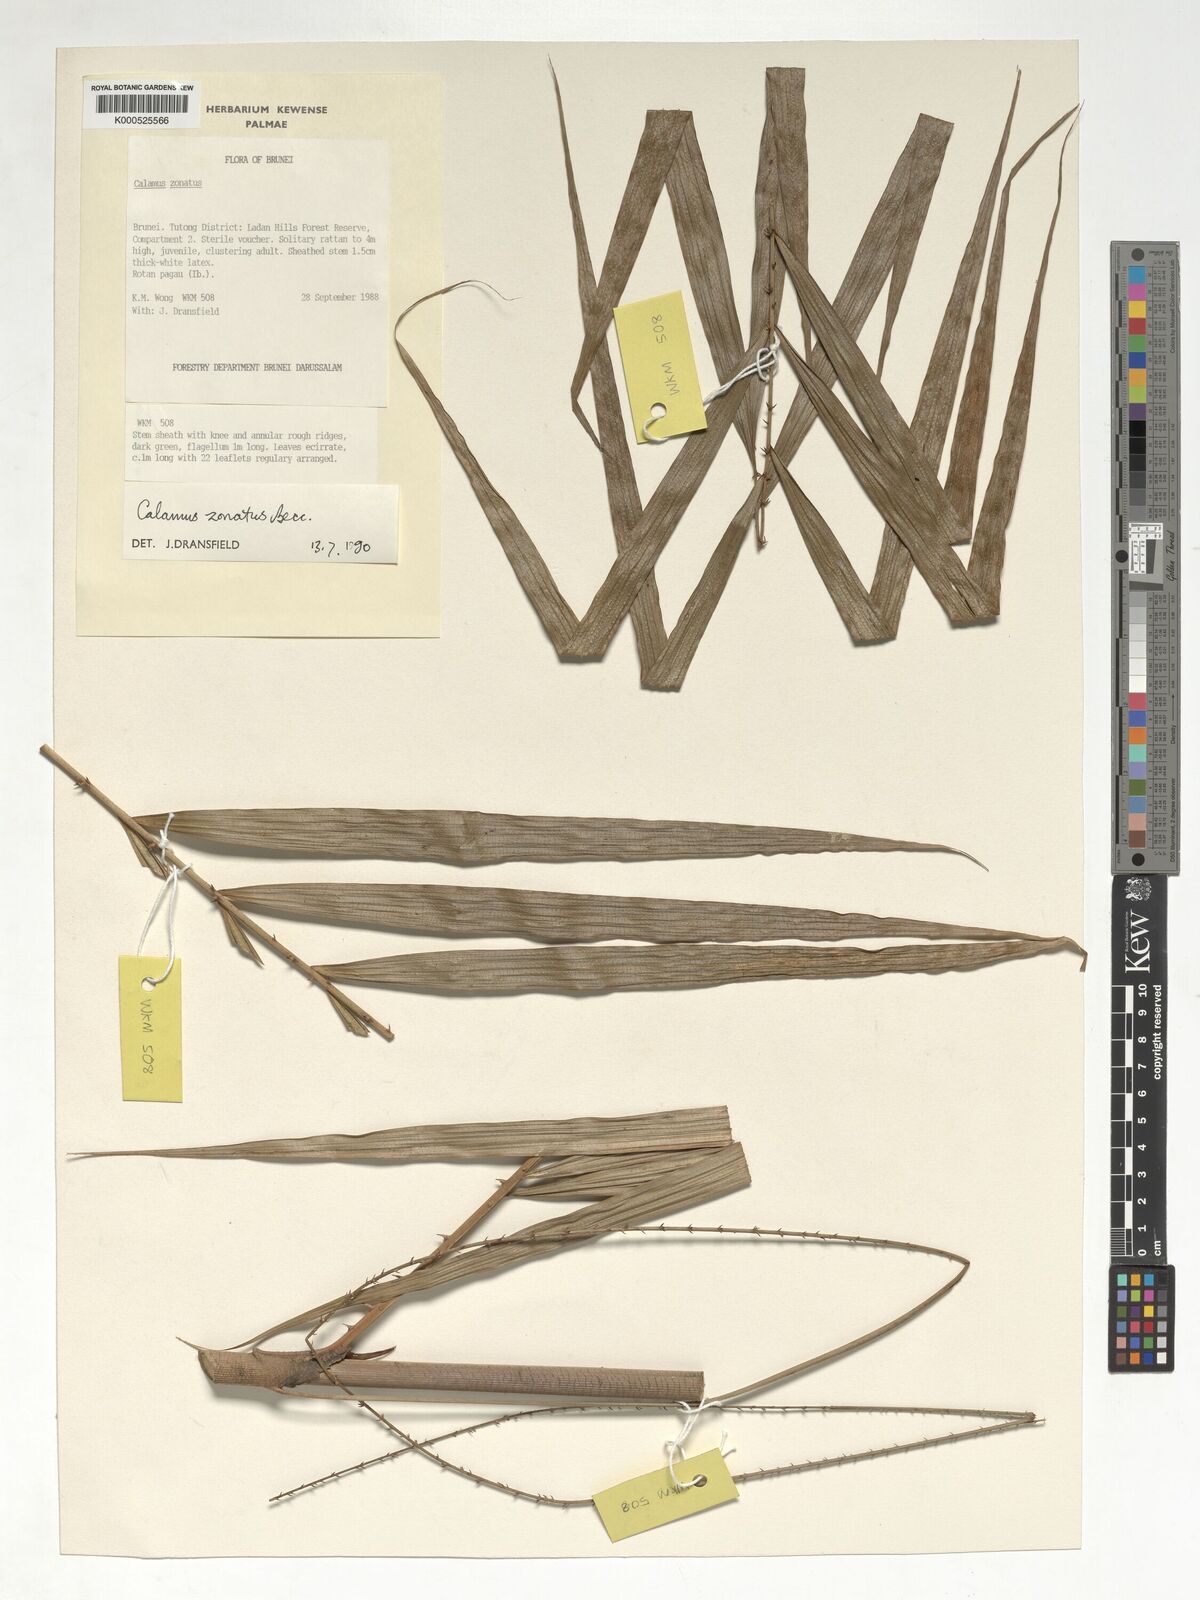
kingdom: Plantae
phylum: Tracheophyta
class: Liliopsida
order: Arecales
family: Arecaceae
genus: Calamus
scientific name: Calamus zonatus
